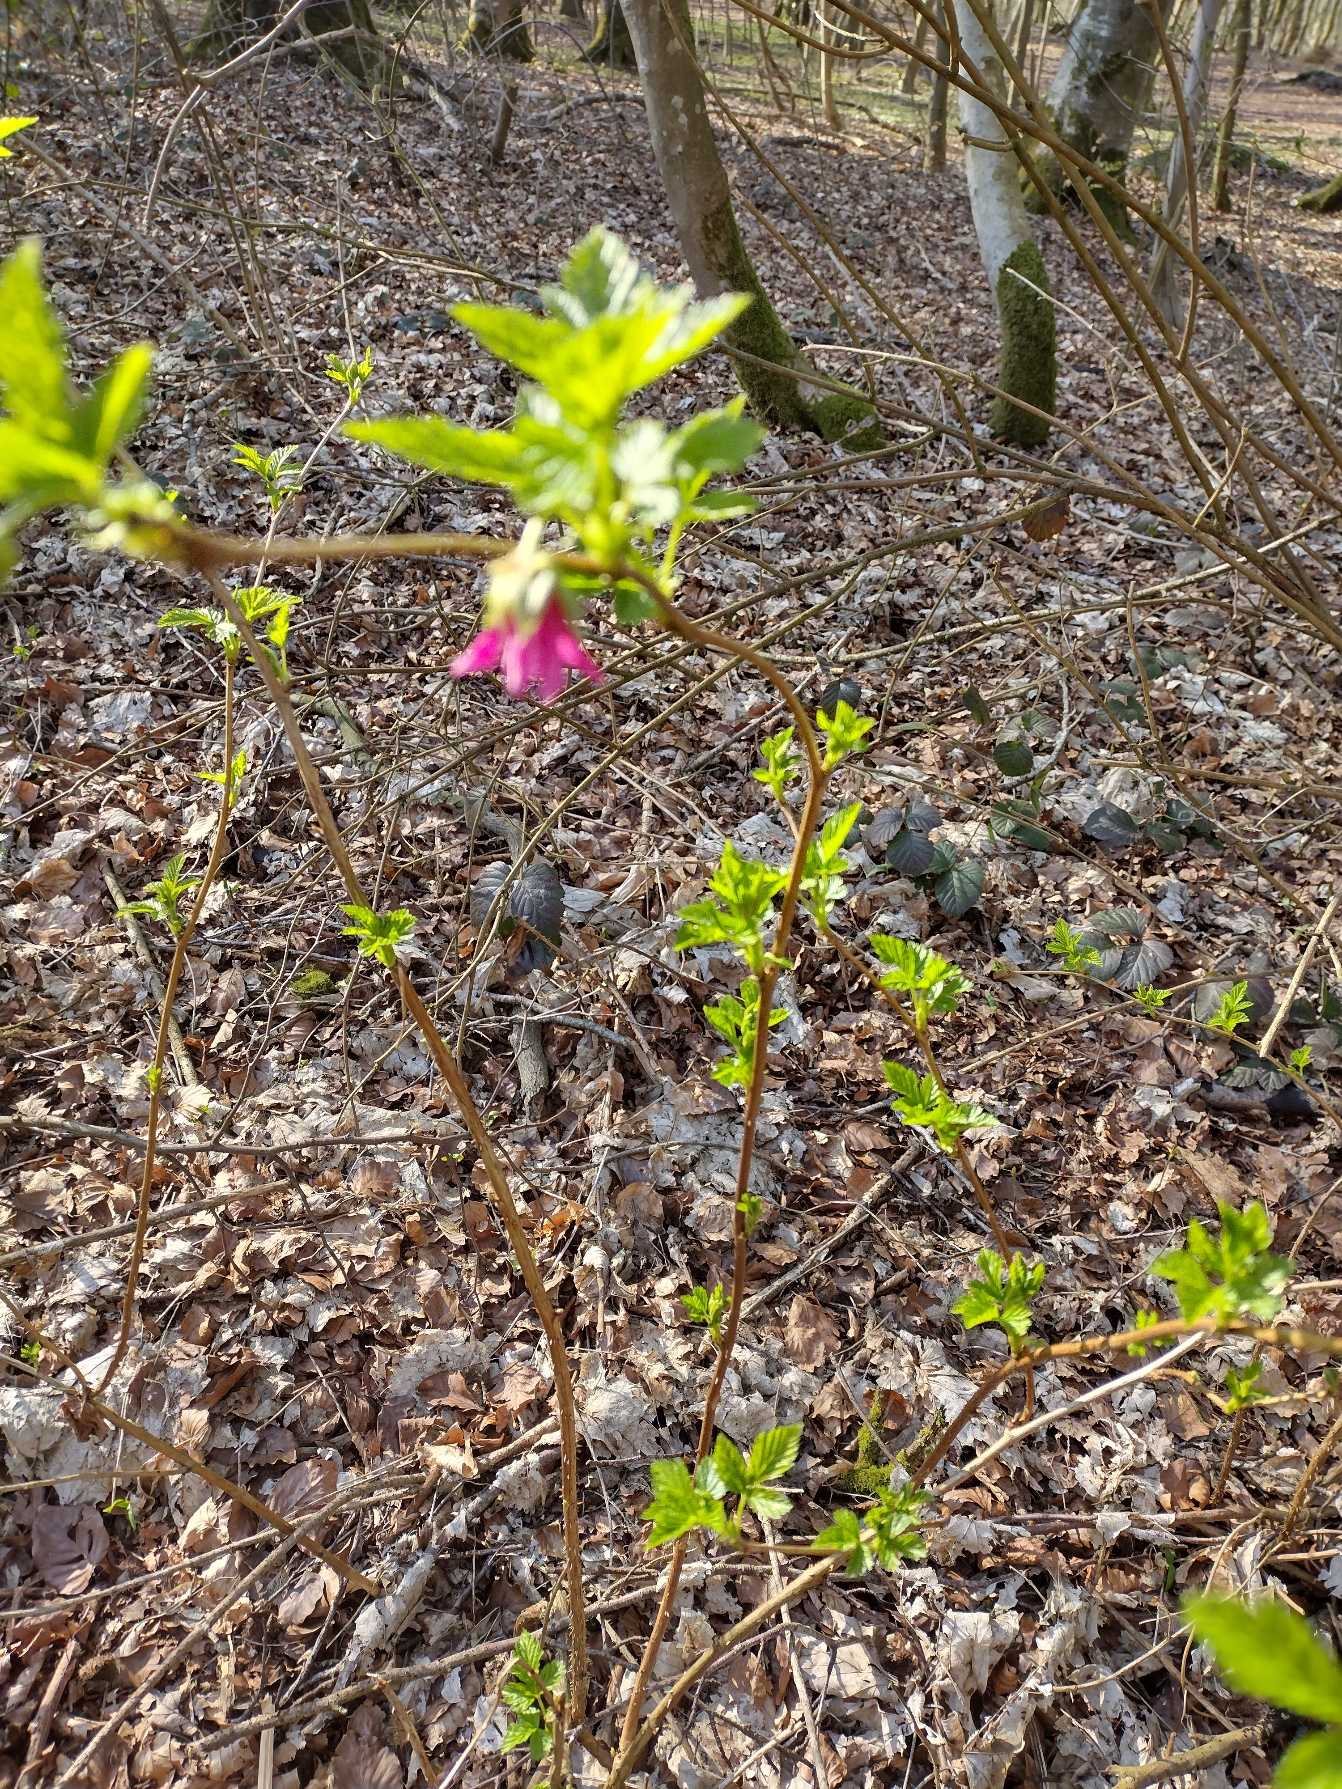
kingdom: Plantae
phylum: Tracheophyta
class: Magnoliopsida
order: Rosales
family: Rosaceae
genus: Rubus
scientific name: Rubus spectabilis
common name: Laksebær
